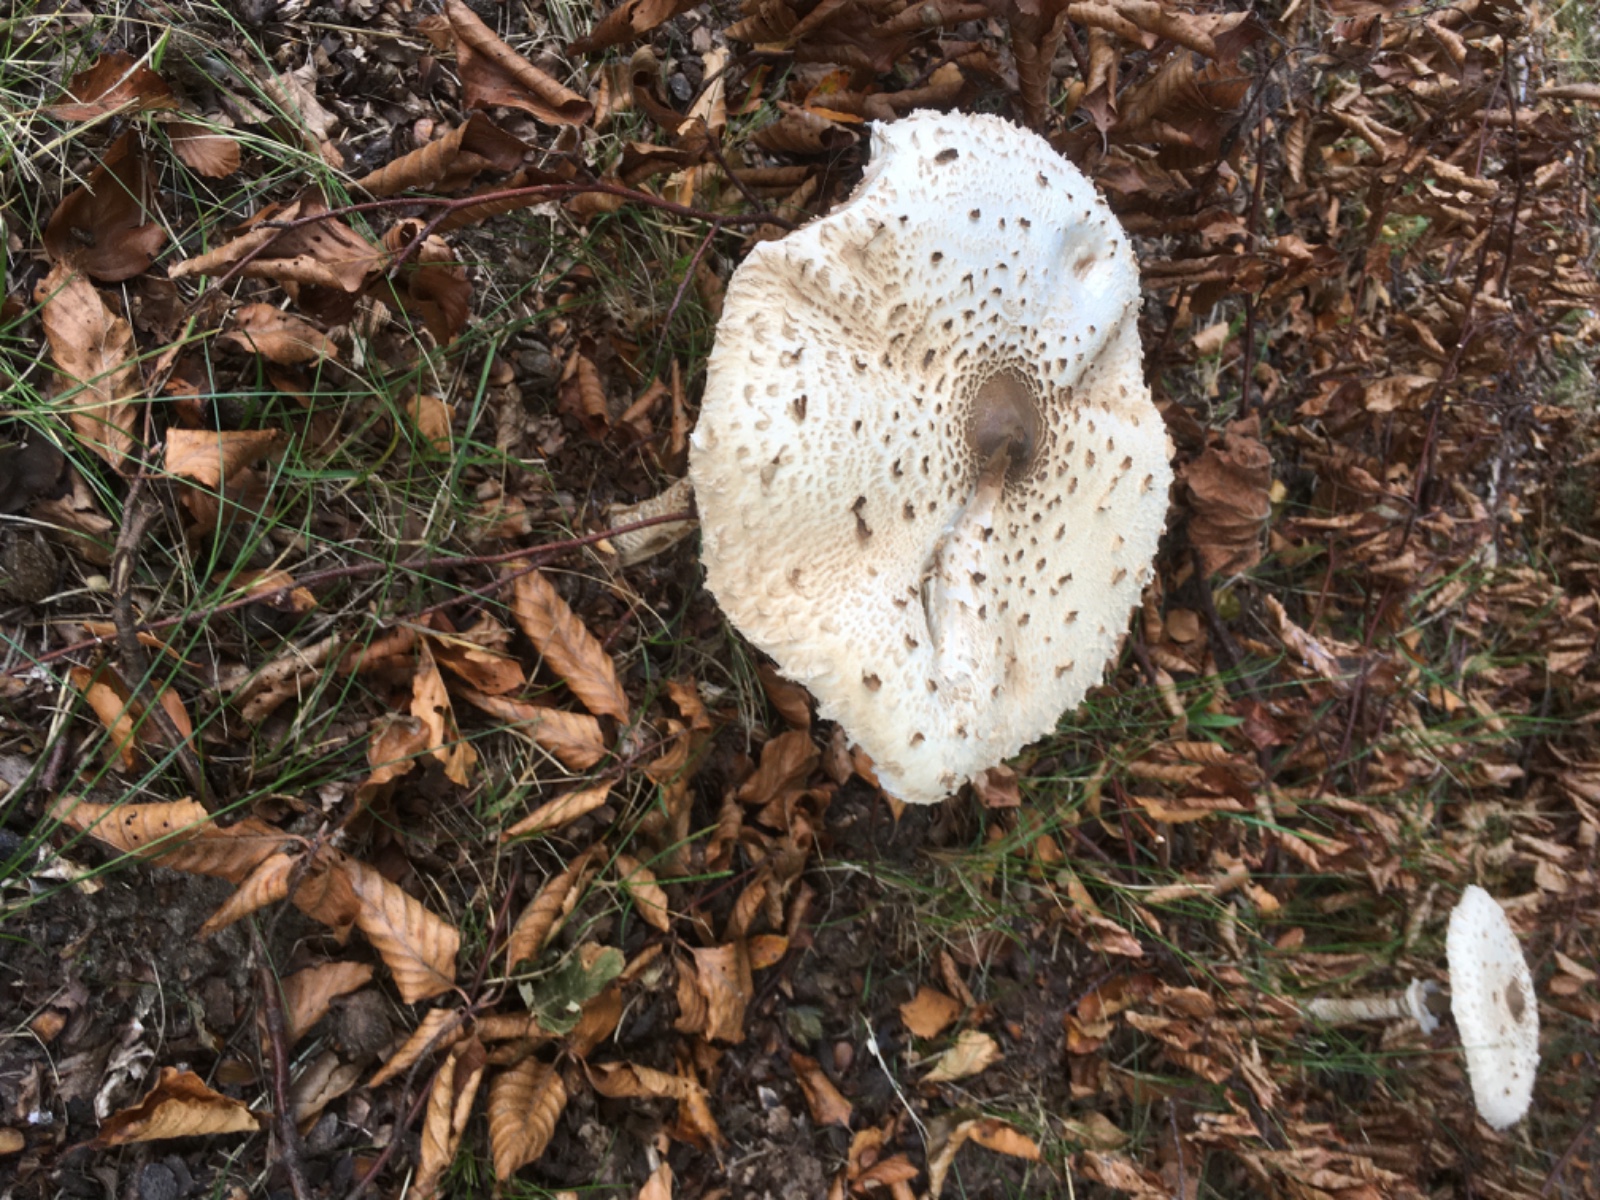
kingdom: Fungi
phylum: Basidiomycota
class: Agaricomycetes
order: Agaricales
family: Agaricaceae
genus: Macrolepiota
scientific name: Macrolepiota procera
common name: stor kæmpeparasolhat
